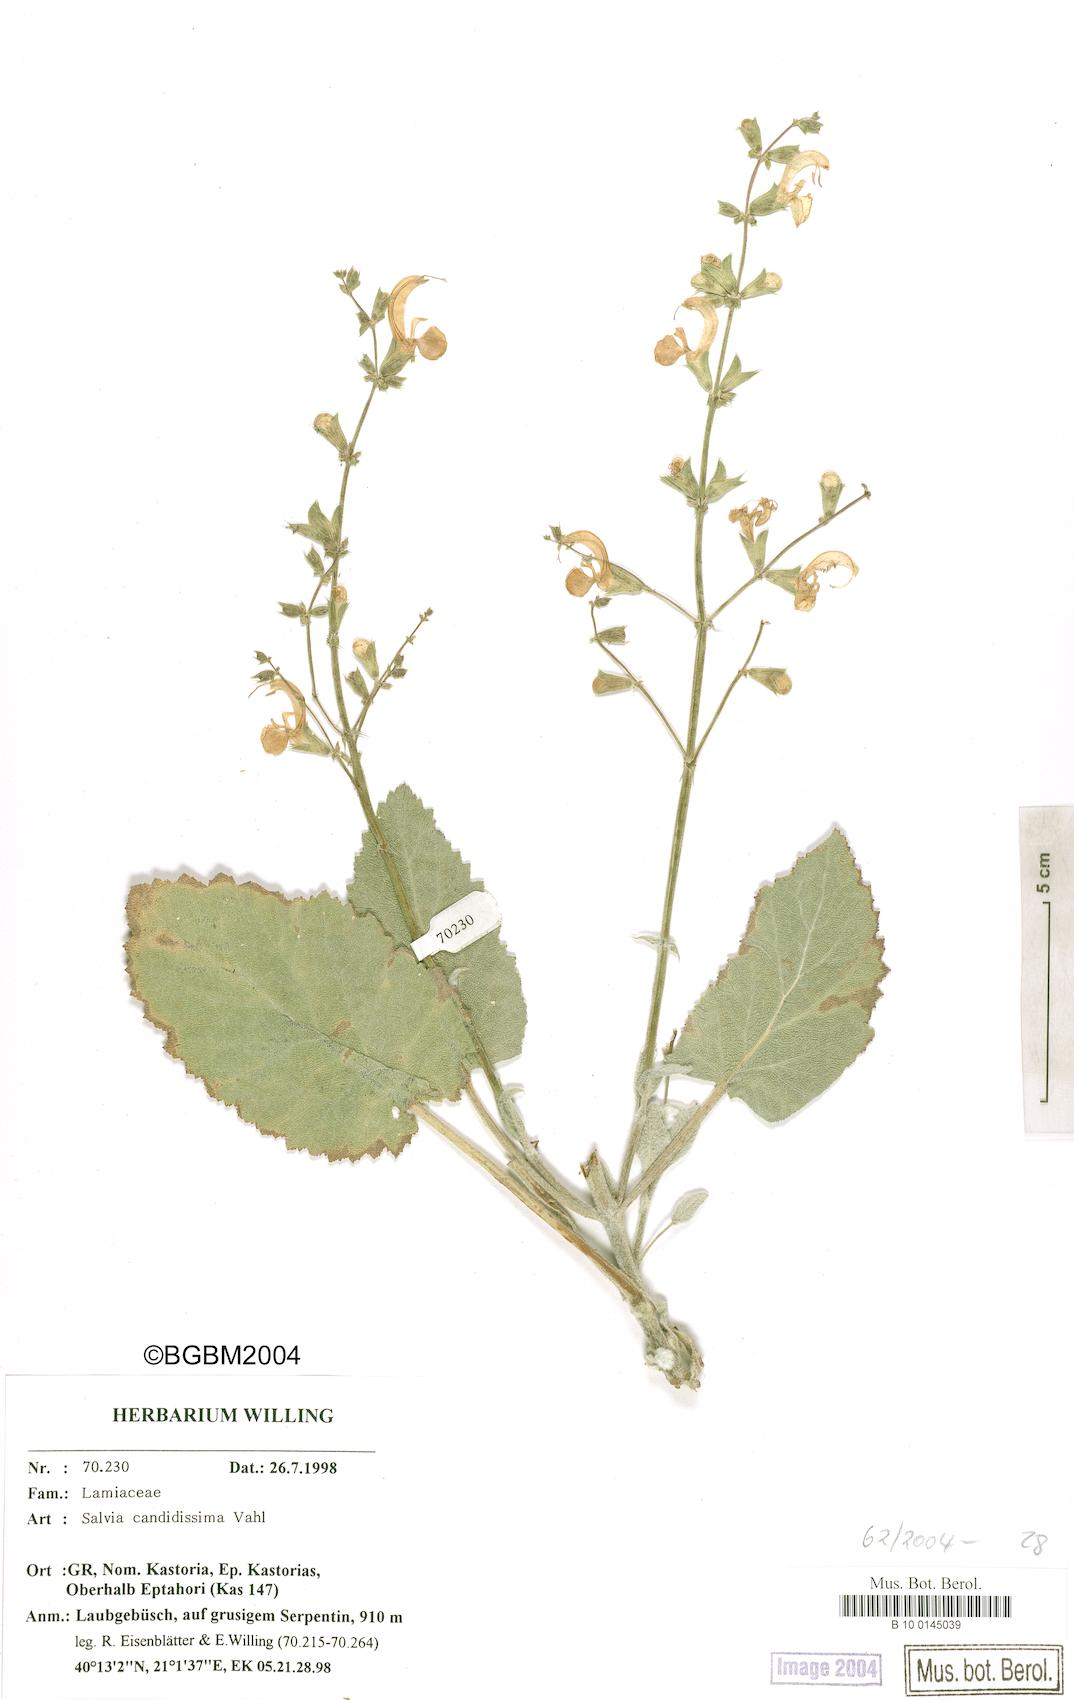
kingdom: Plantae
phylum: Tracheophyta
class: Magnoliopsida
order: Lamiales
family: Lamiaceae
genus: Salvia
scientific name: Salvia candidissima
